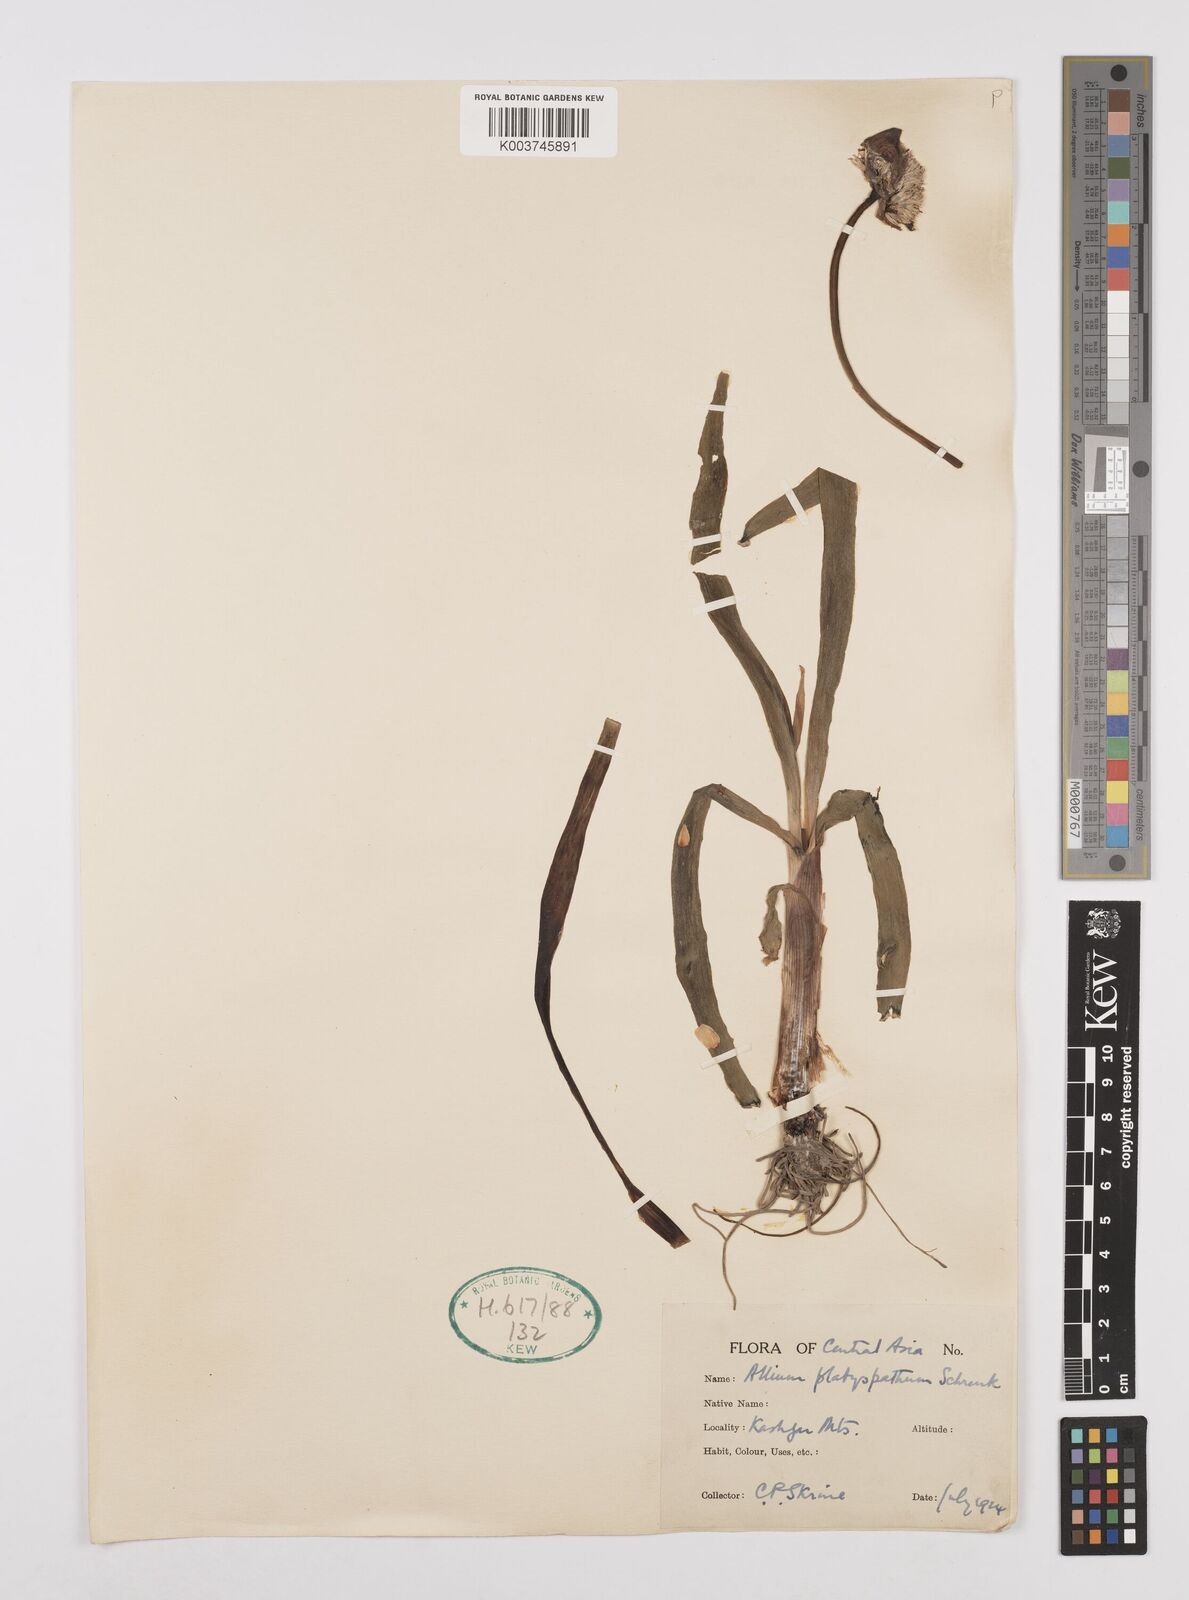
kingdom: Plantae
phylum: Tracheophyta
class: Liliopsida
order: Asparagales
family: Amaryllidaceae
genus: Allium
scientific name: Allium platyspathum
